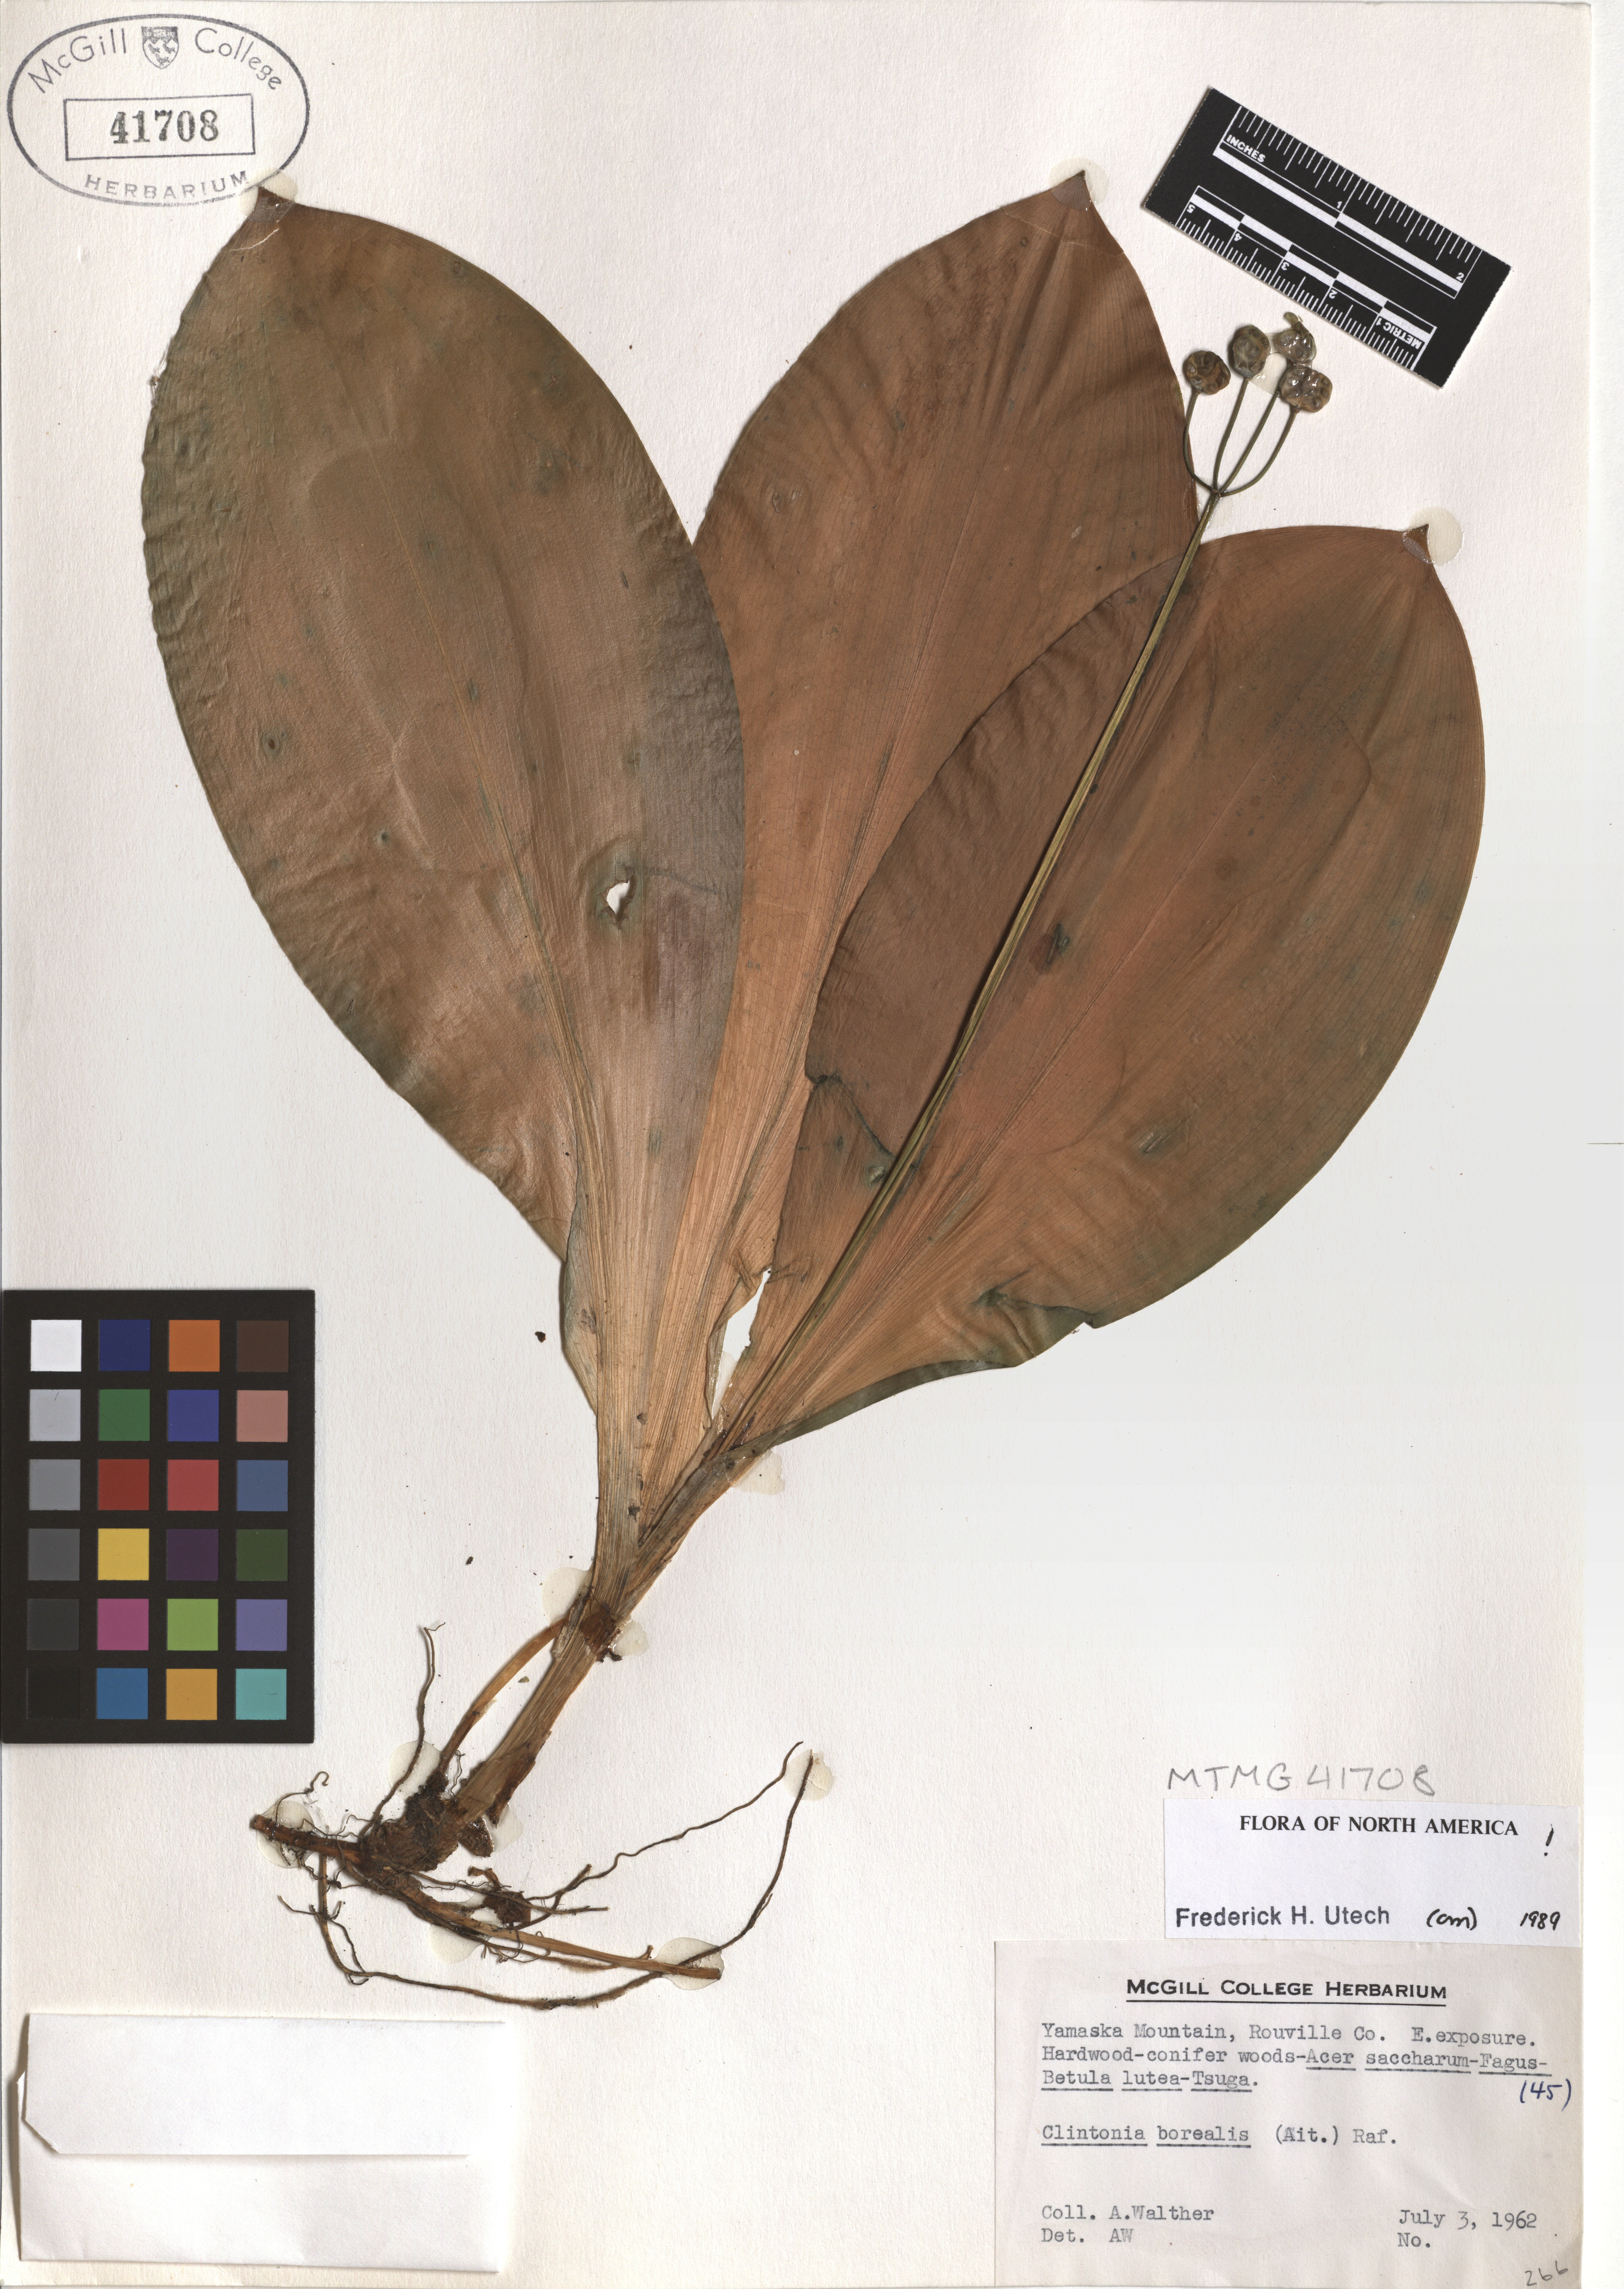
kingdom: Plantae
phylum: Tracheophyta
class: Liliopsida
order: Liliales
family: Liliaceae
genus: Clintonia
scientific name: Clintonia borealis
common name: Yellow clintonia
